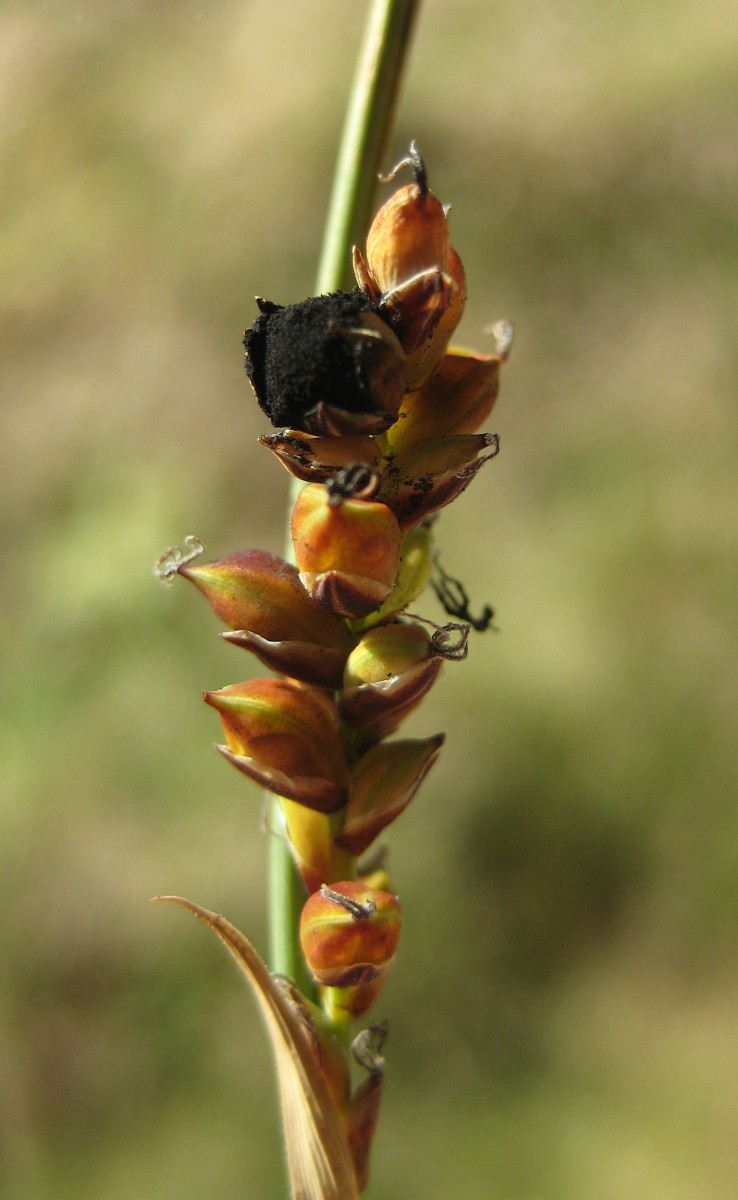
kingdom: Fungi
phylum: Basidiomycota
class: Ustilaginomycetes
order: Ustilaginales
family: Anthracoideaceae
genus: Anthracoidea
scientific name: Anthracoidea paniceae
